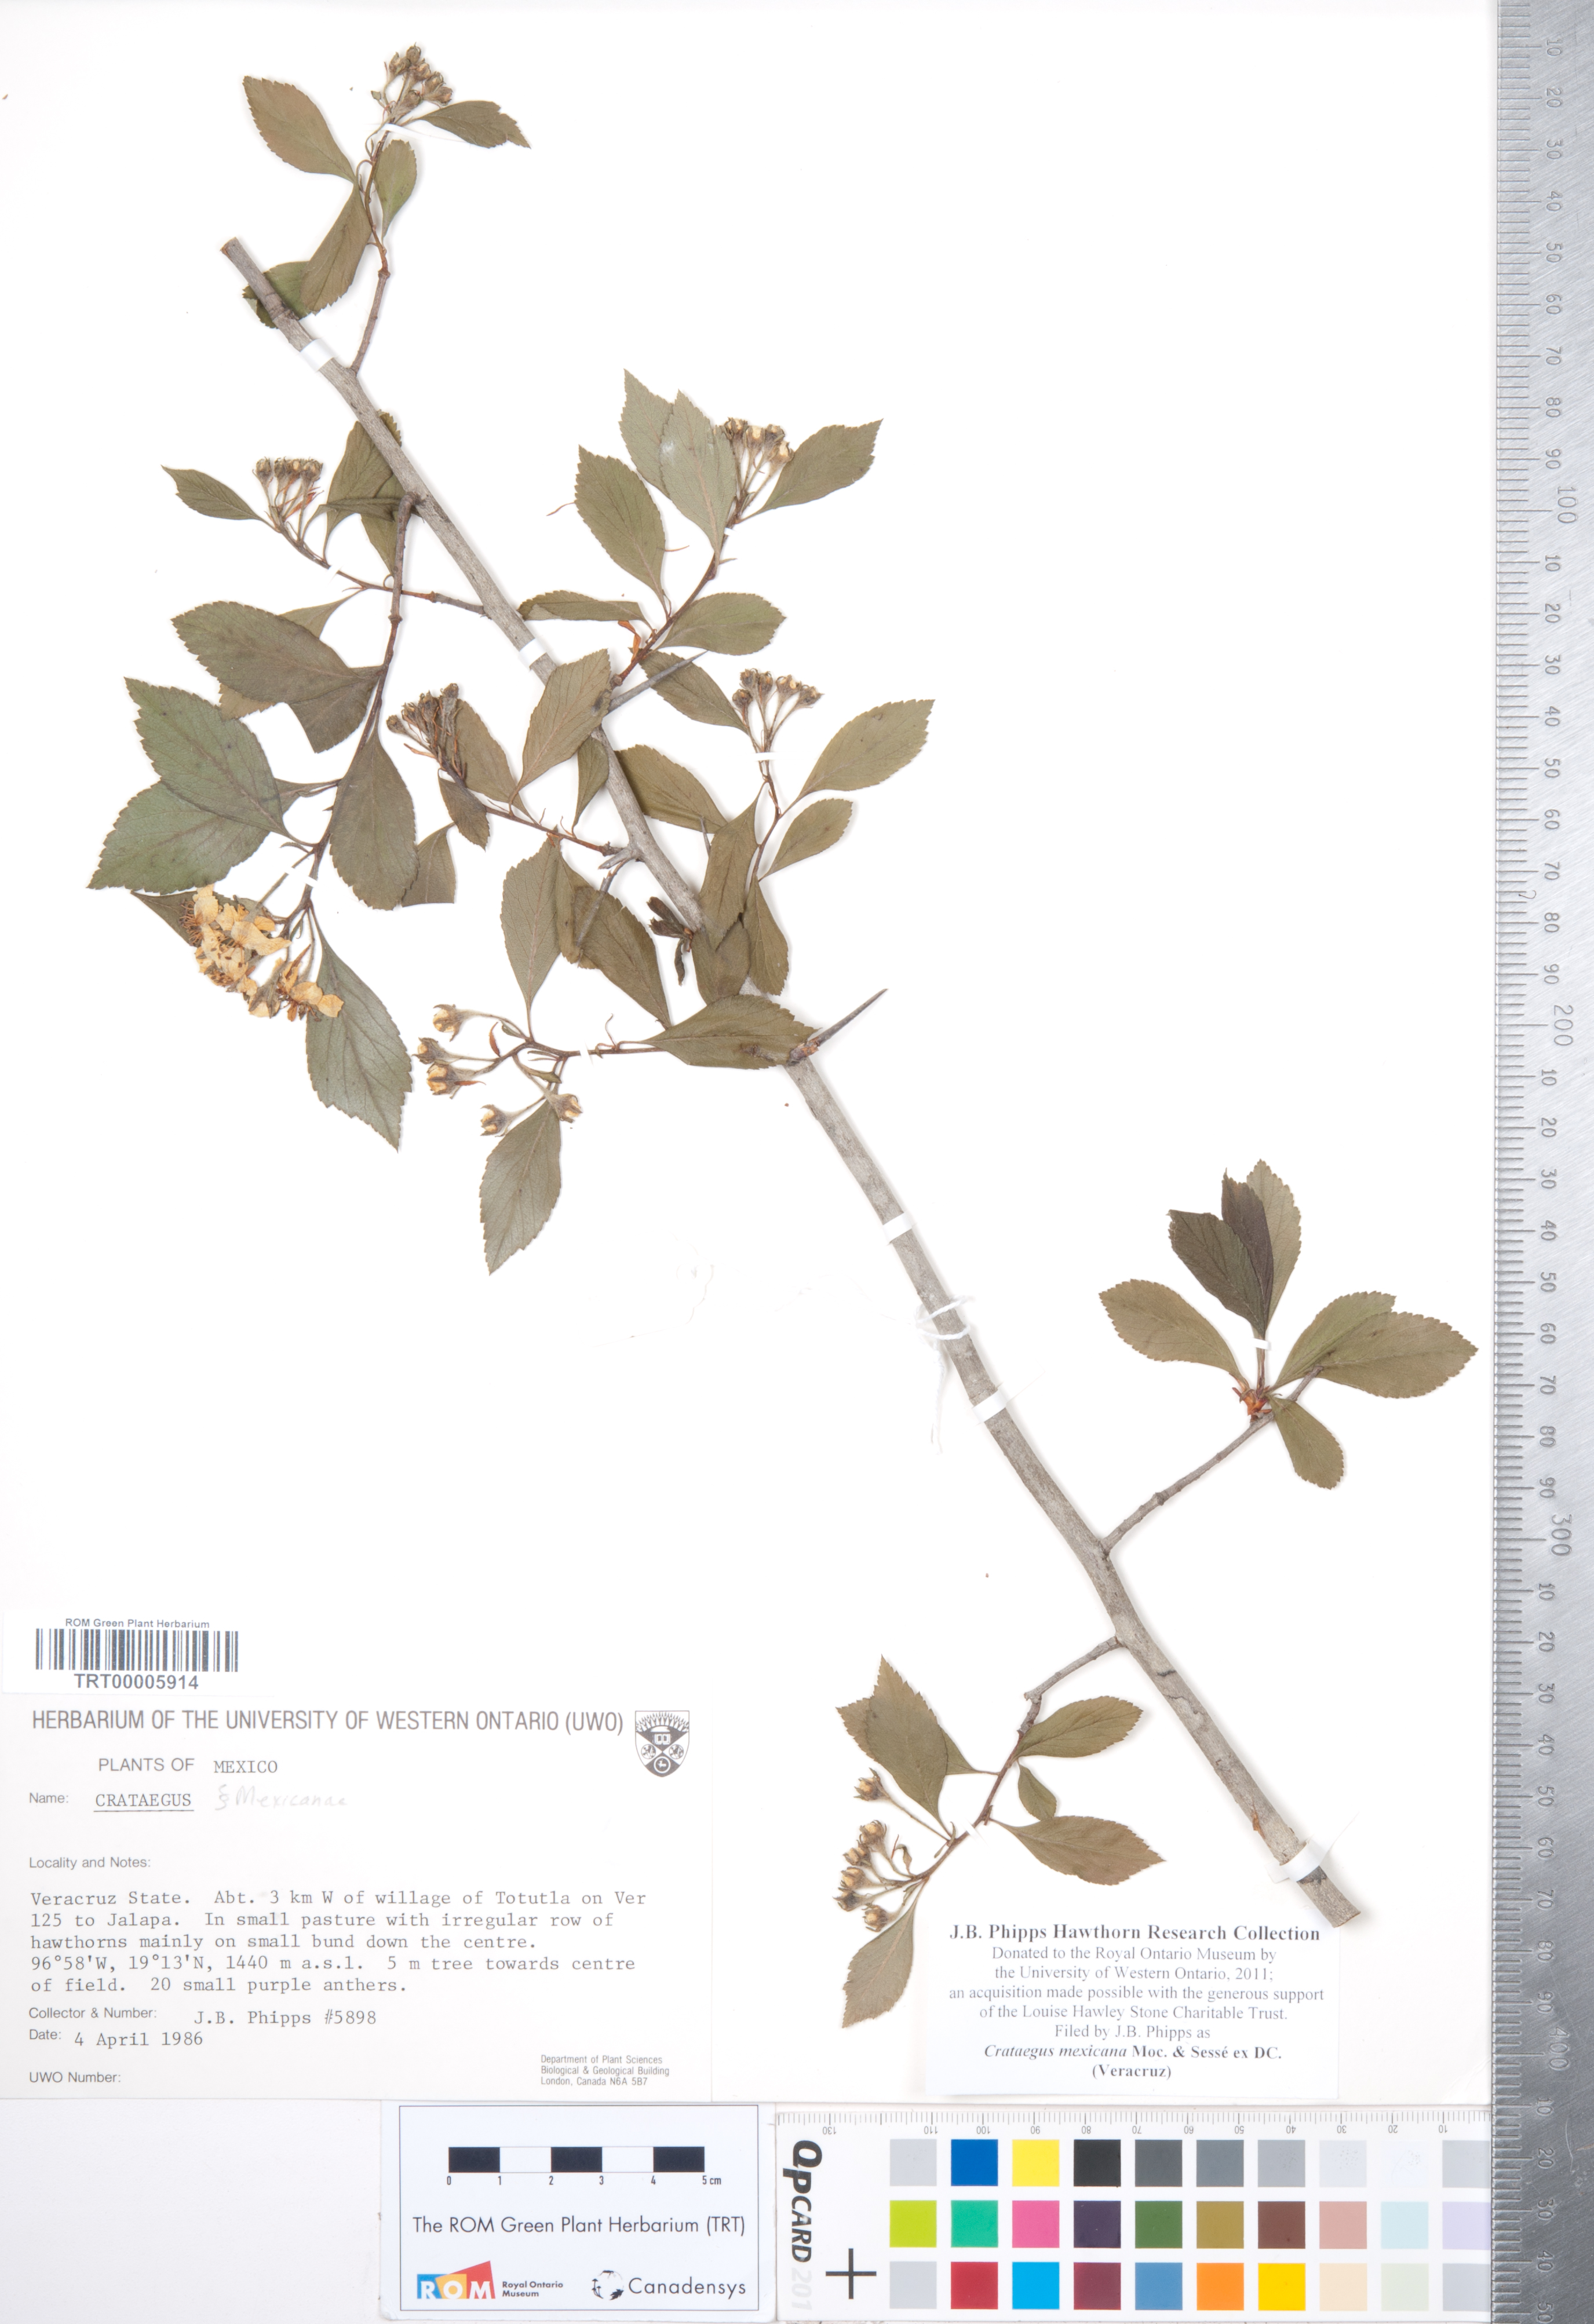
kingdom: Plantae
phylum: Tracheophyta
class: Magnoliopsida
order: Rosales
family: Rosaceae
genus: Crataegus
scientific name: Crataegus mexicana
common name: Mexican hawthorn
